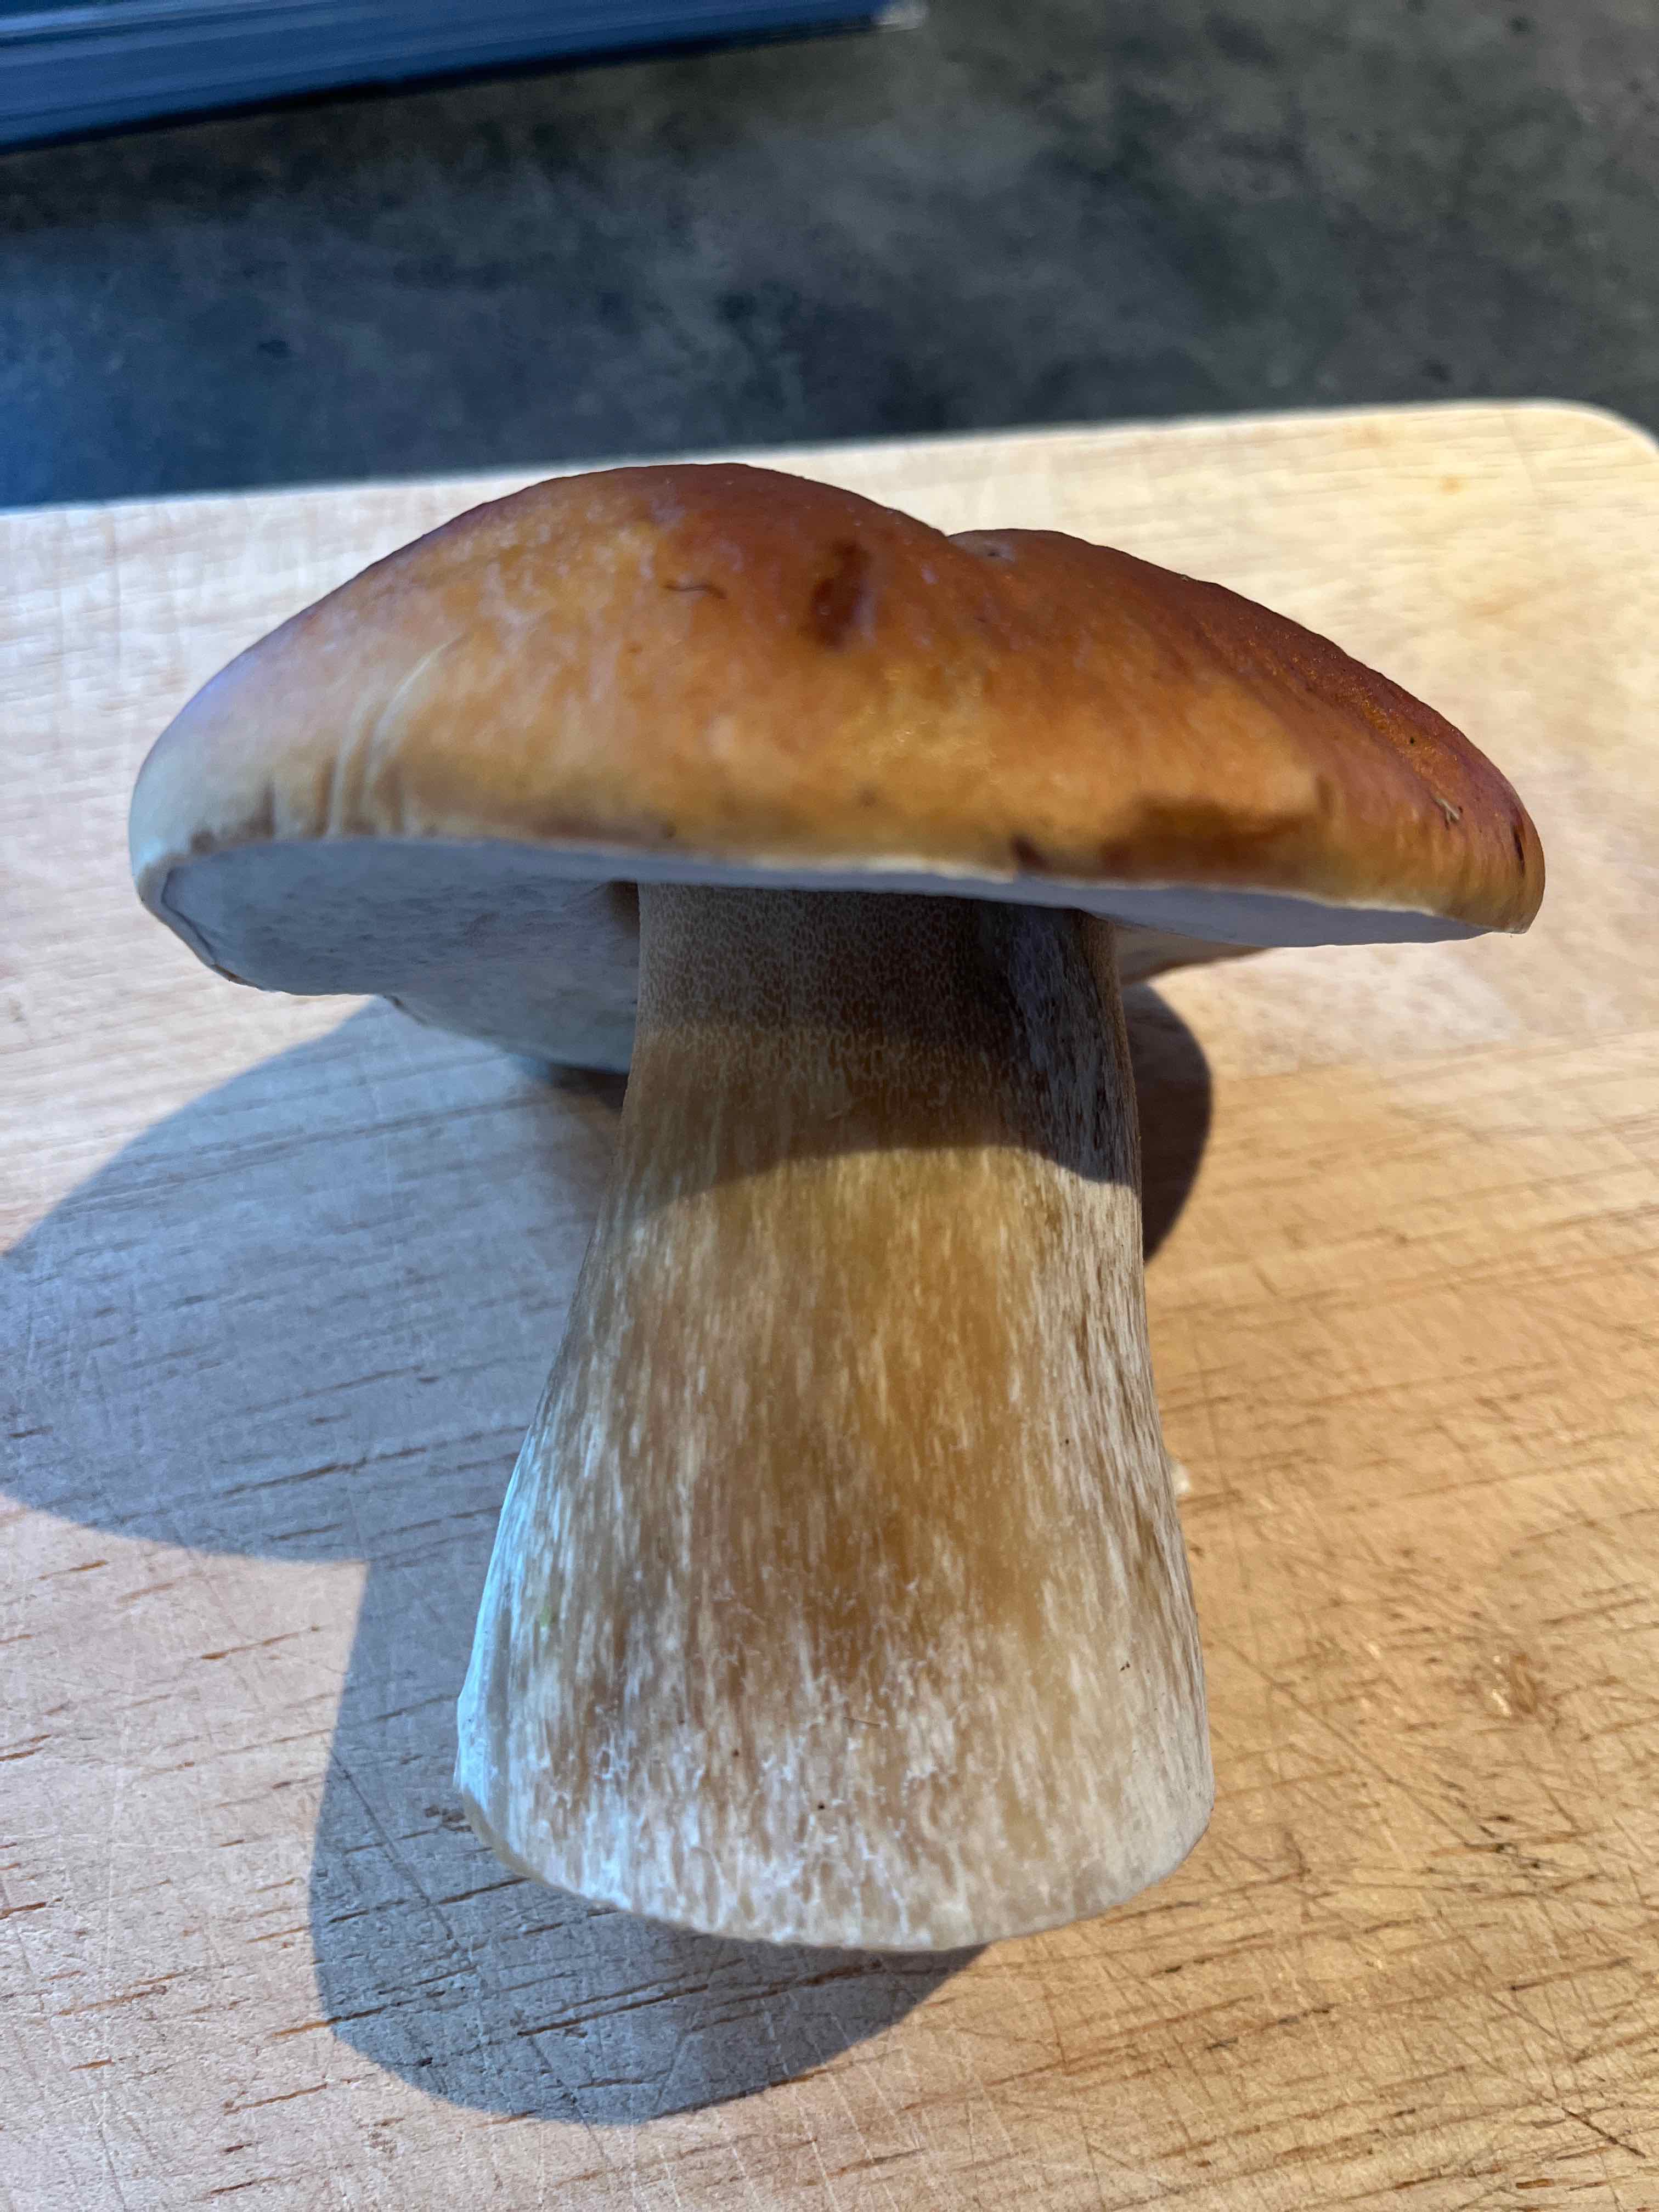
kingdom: Fungi
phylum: Basidiomycota
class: Agaricomycetes
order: Boletales
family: Boletaceae
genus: Boletus
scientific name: Boletus edulis
